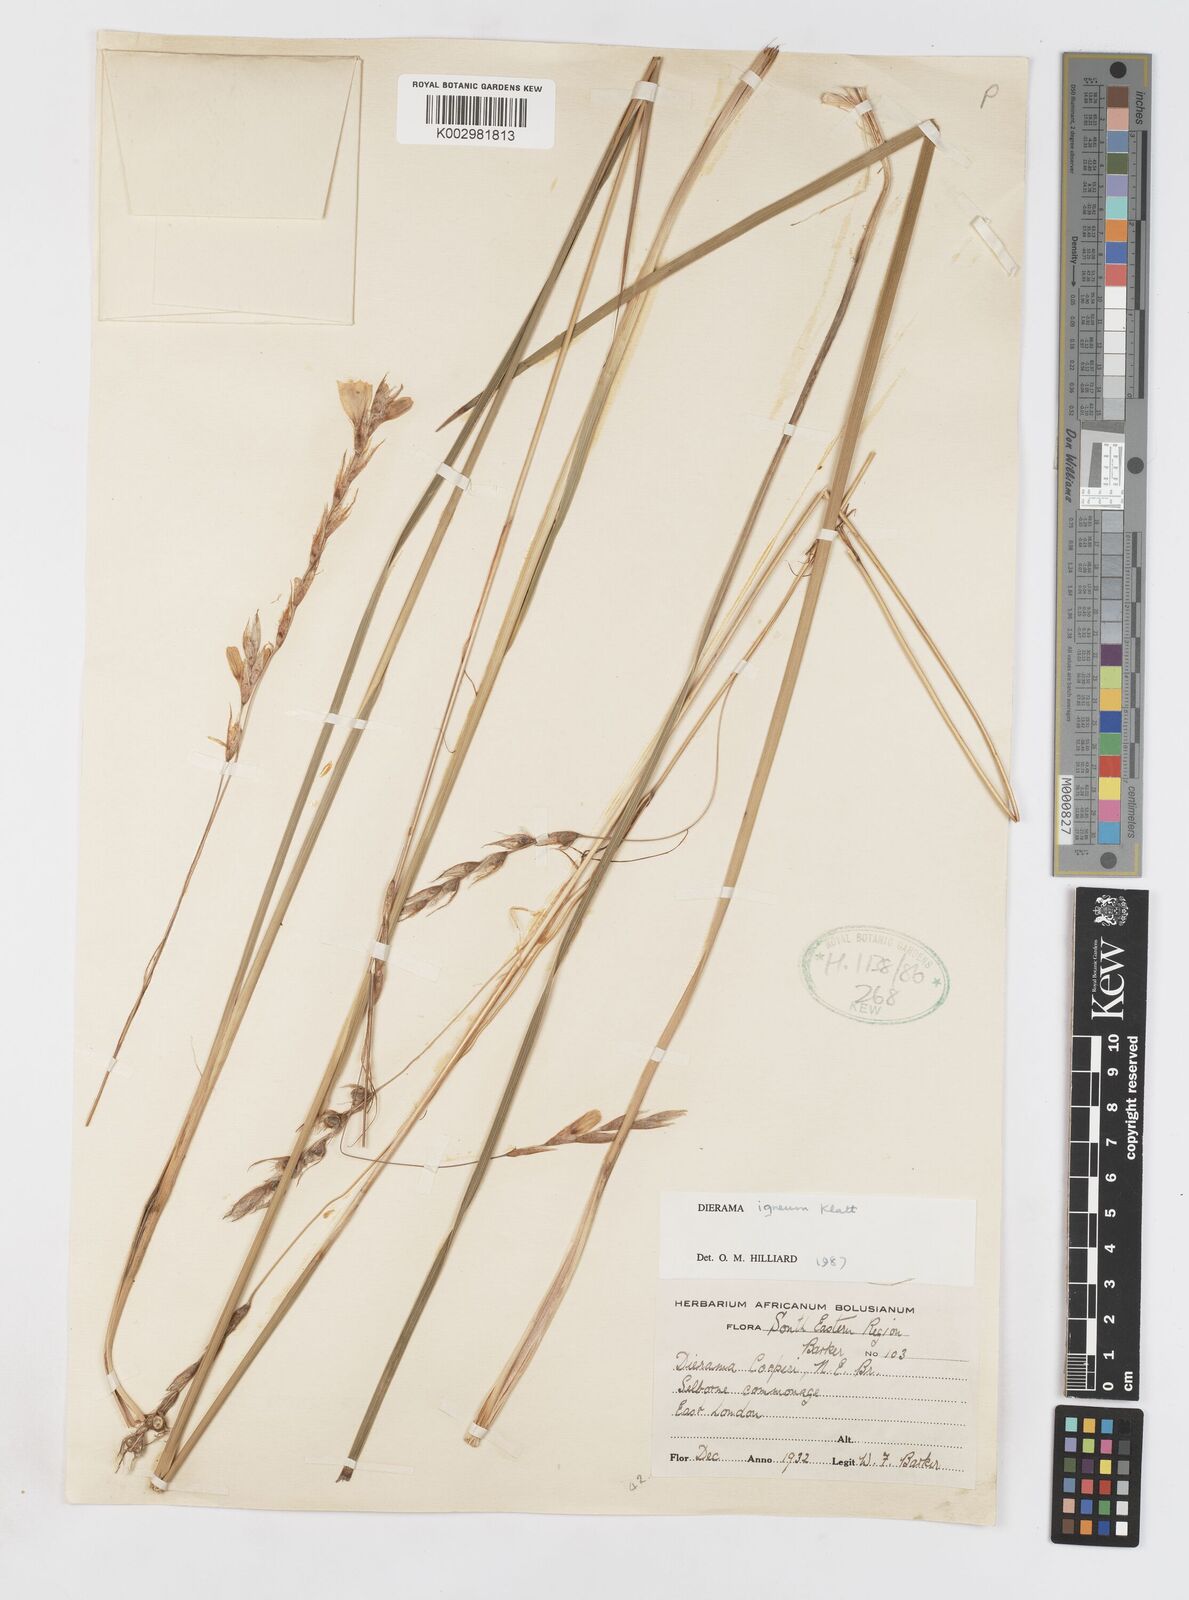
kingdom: Plantae
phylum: Tracheophyta
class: Liliopsida
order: Asparagales
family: Iridaceae
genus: Dierama
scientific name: Dierama igneum
